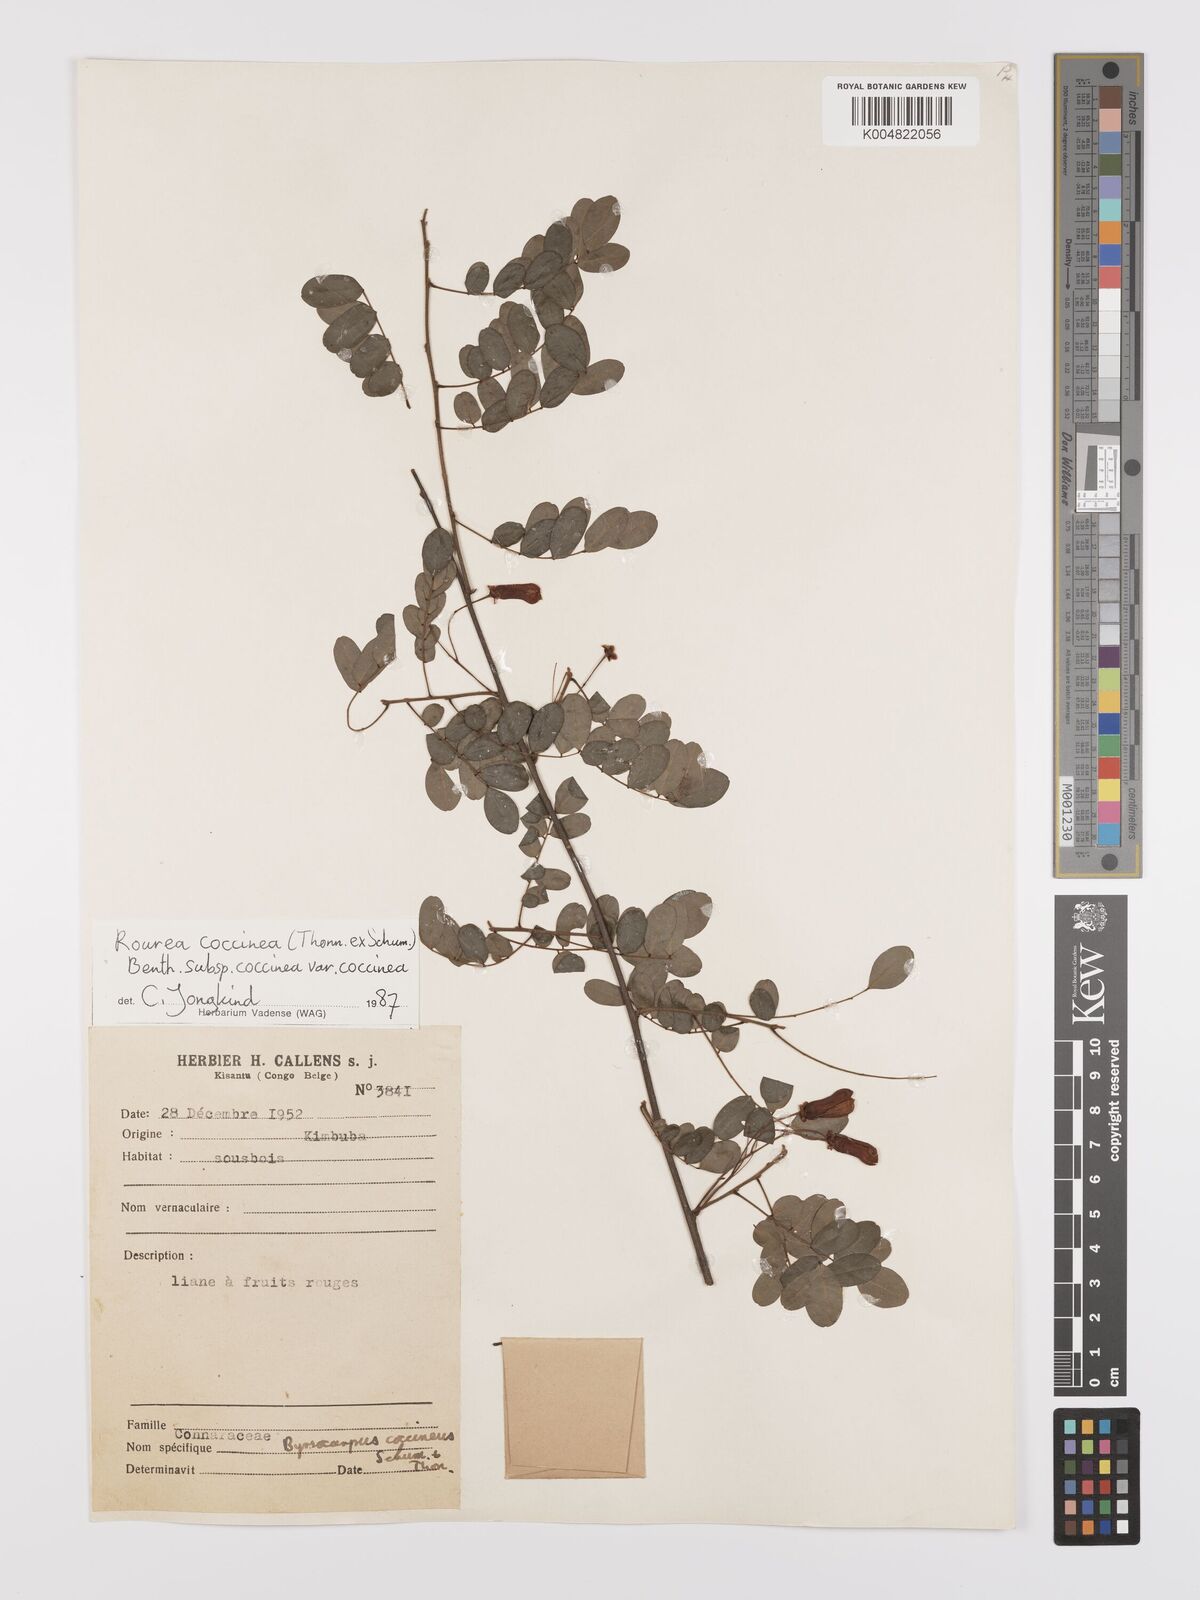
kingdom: Plantae
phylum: Tracheophyta
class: Magnoliopsida
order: Oxalidales
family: Connaraceae
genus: Rourea
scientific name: Rourea coccinea
